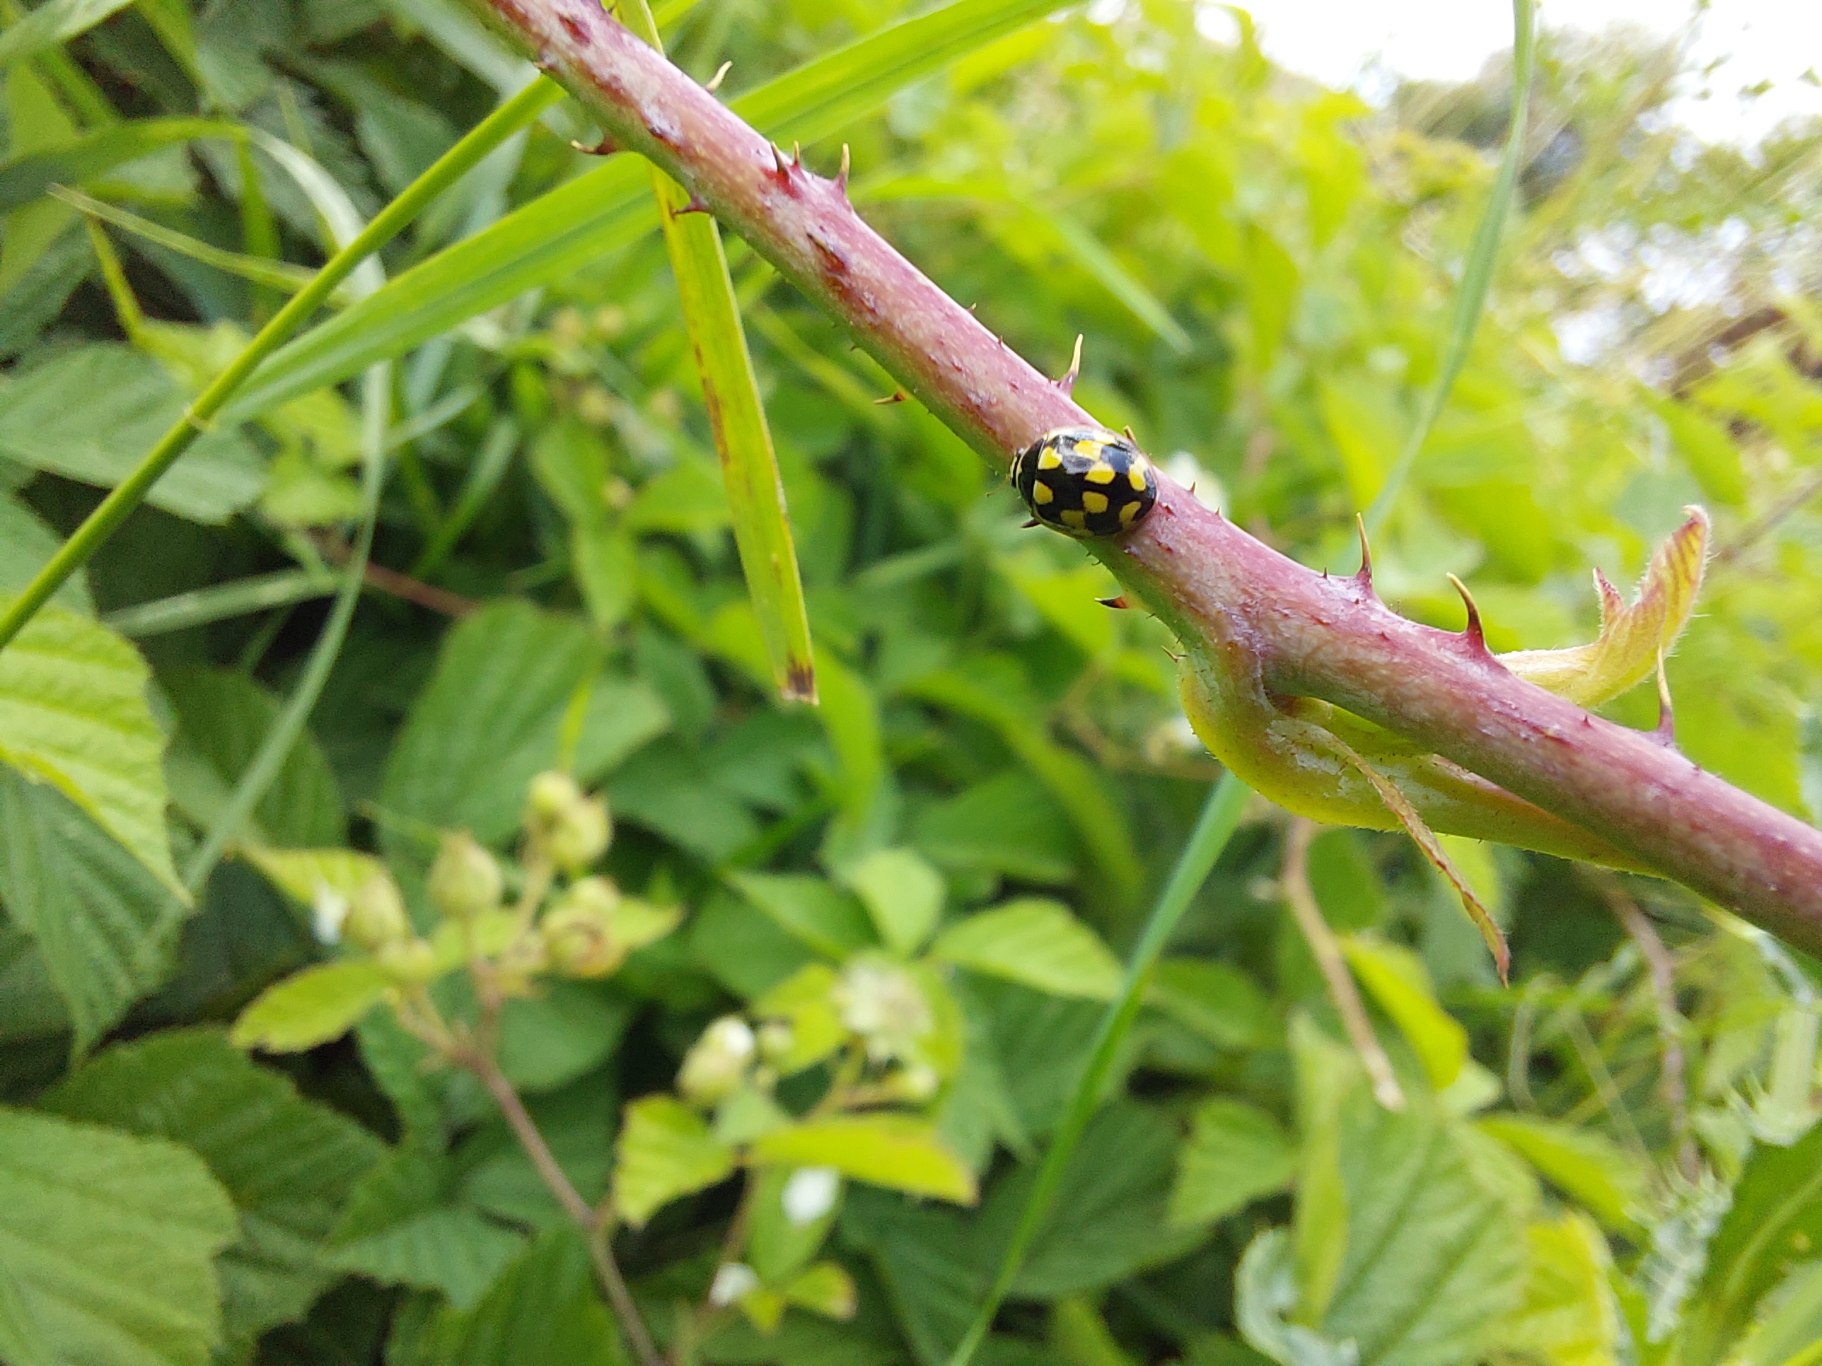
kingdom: Animalia
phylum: Arthropoda
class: Insecta
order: Coleoptera
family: Coccinellidae
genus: Propylaea
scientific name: Propylaea quatuordecimpunctata
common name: Skakbræt
